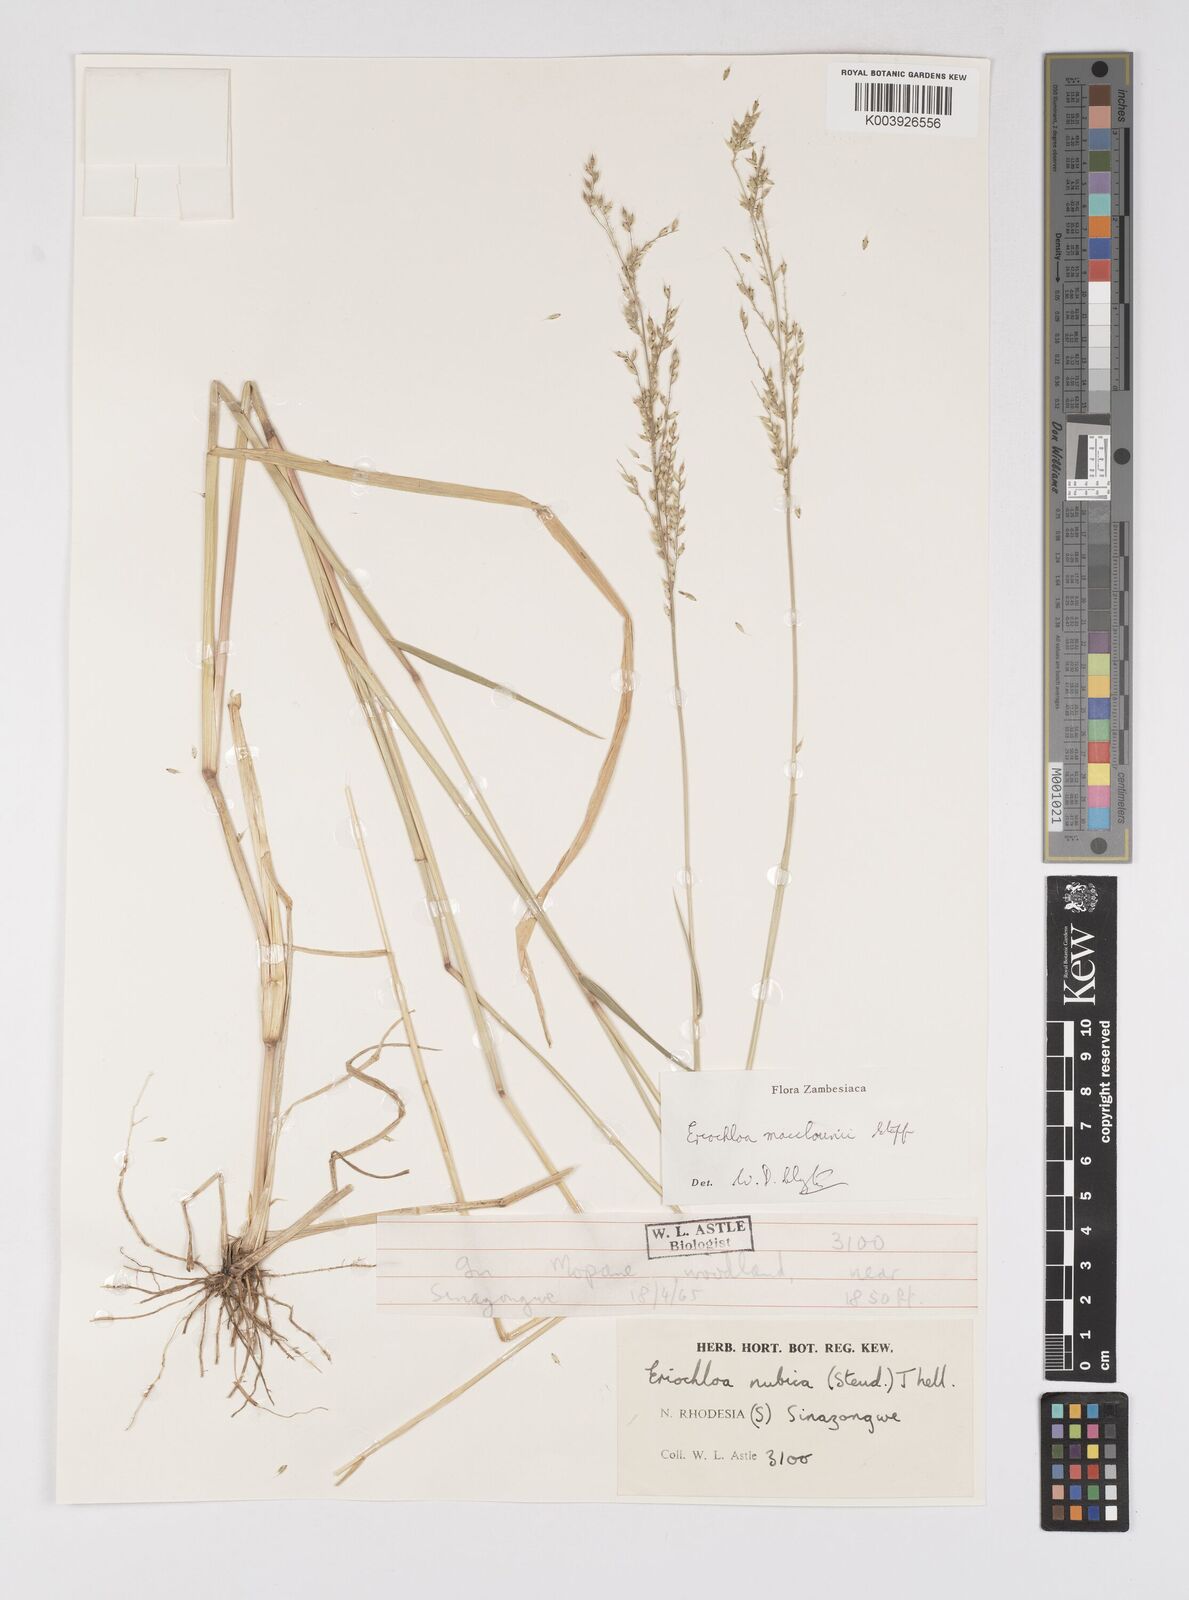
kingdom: Plantae
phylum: Tracheophyta
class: Liliopsida
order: Poales
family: Poaceae
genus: Eriochloa
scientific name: Eriochloa macclounii
